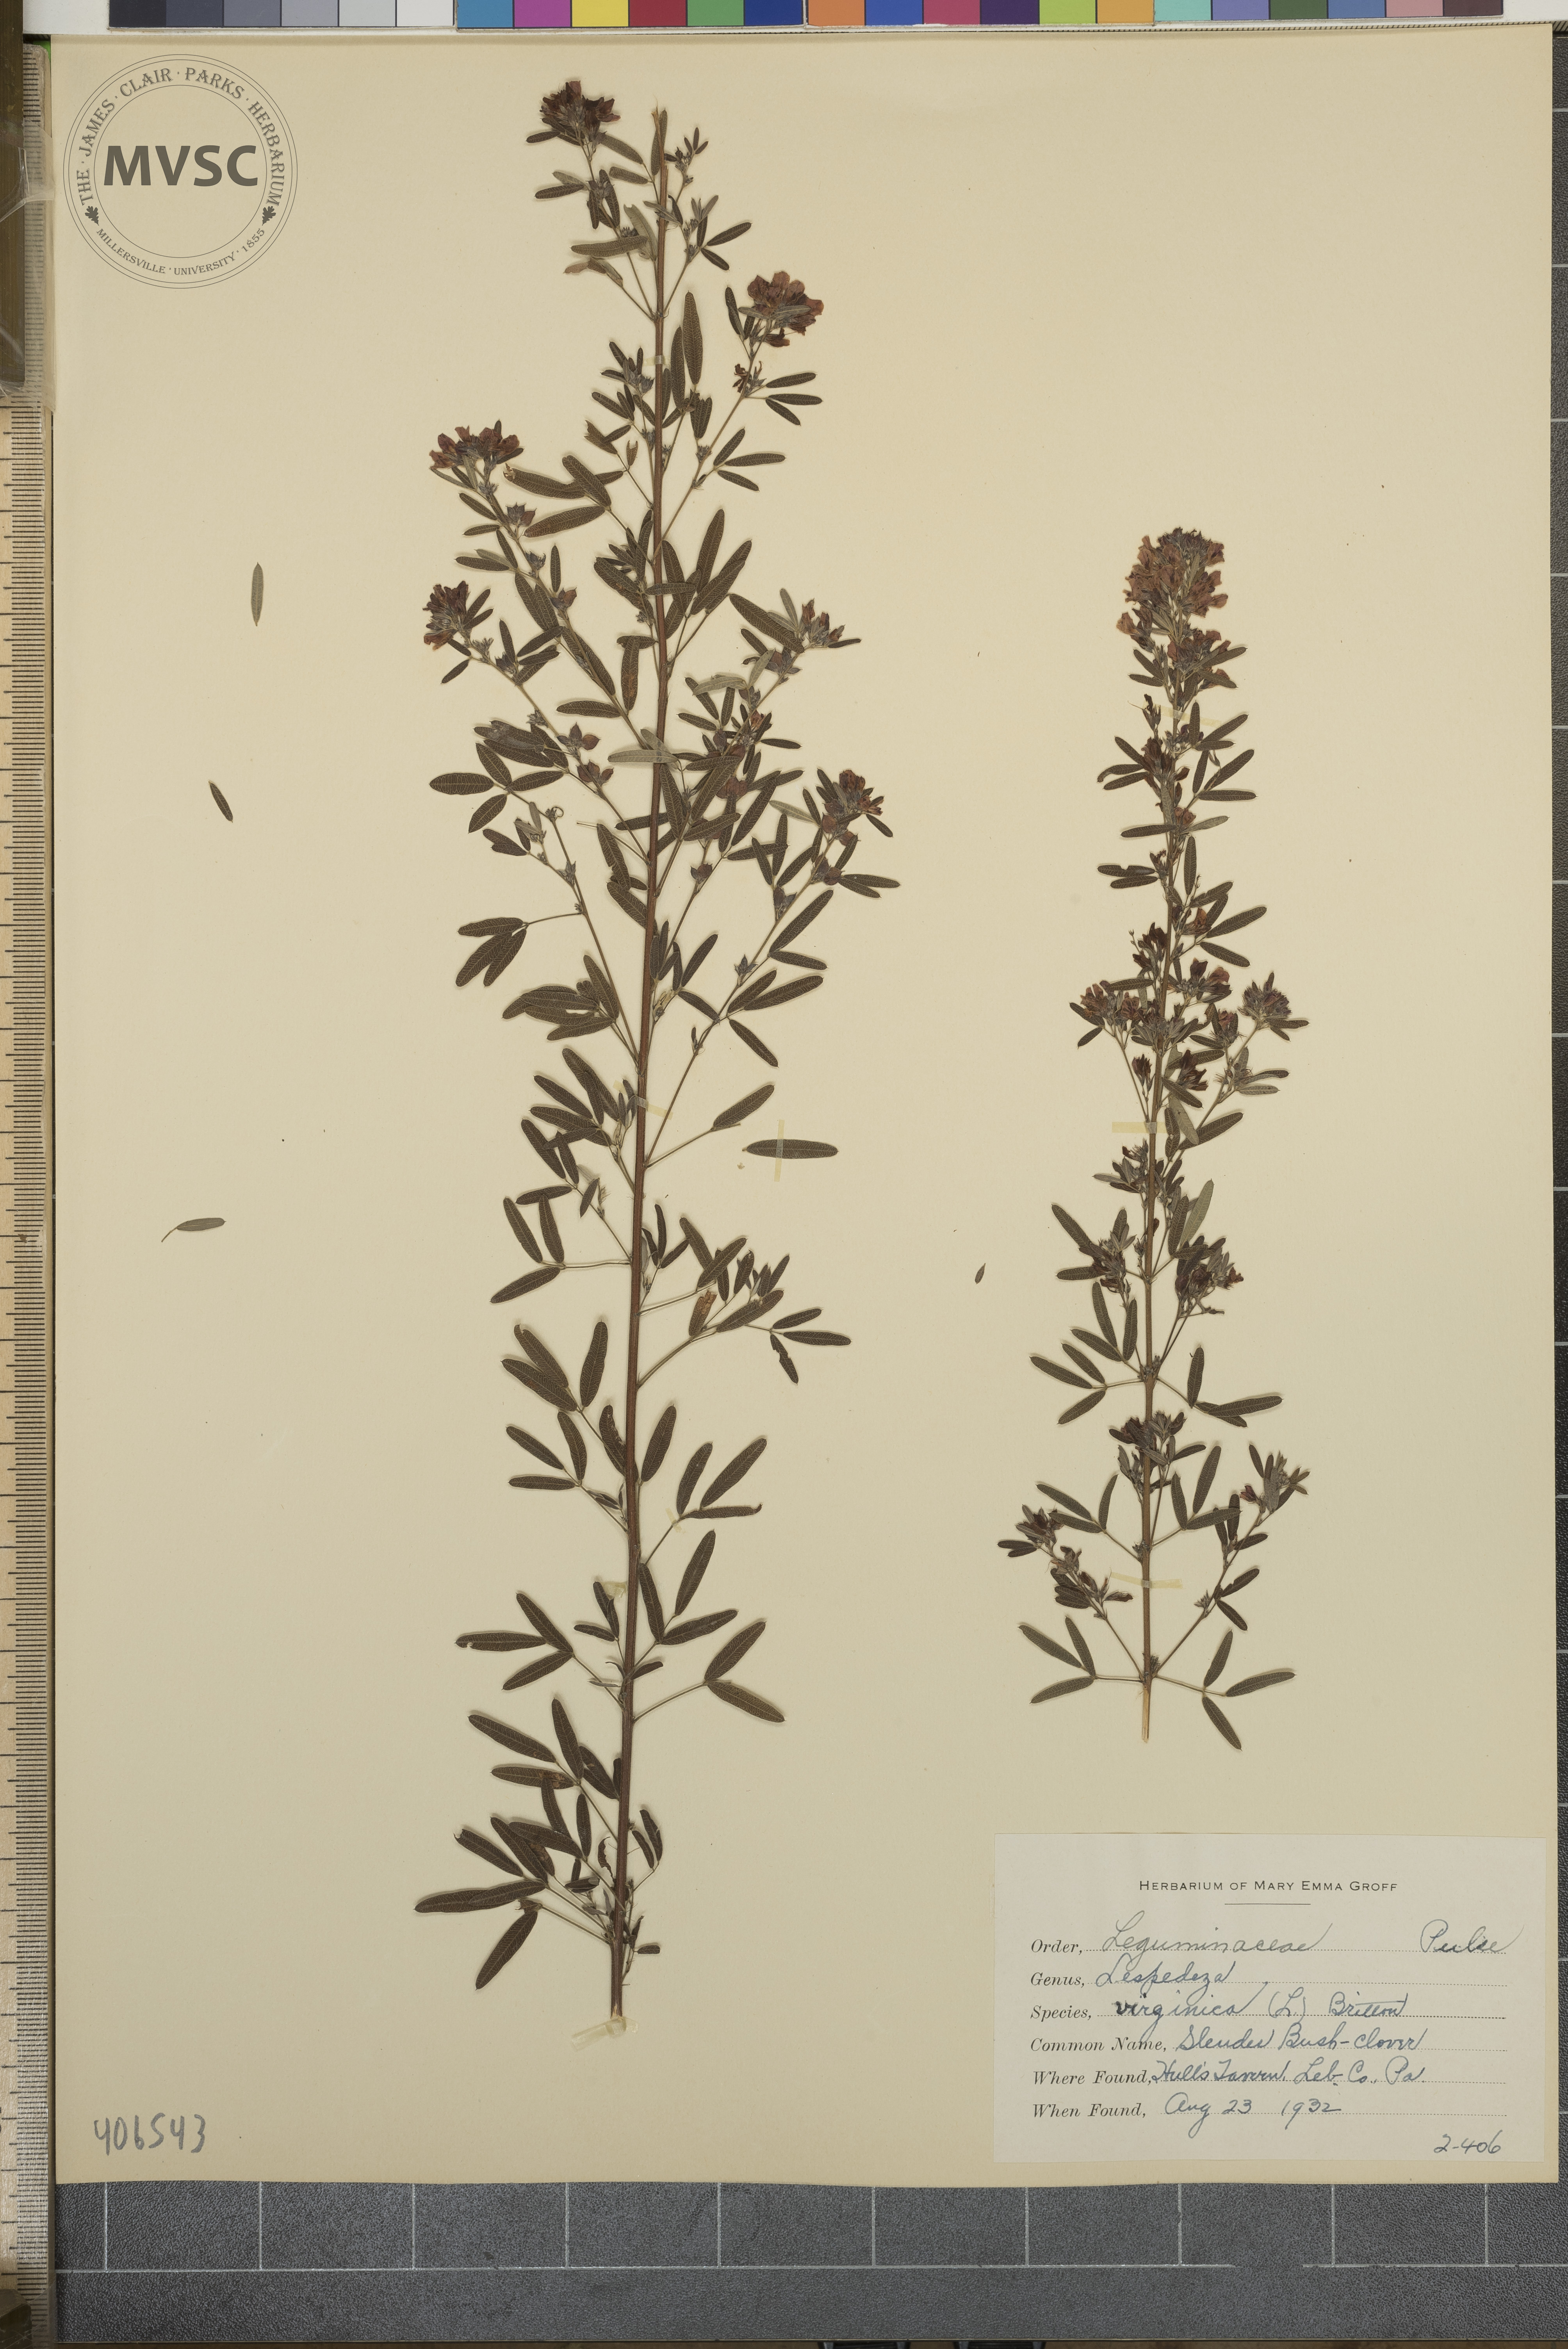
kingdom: Plantae
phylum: Tracheophyta
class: Magnoliopsida
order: Fabales
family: Fabaceae
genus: Lespedeza
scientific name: Lespedeza virginica
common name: Slender Bush-clover
